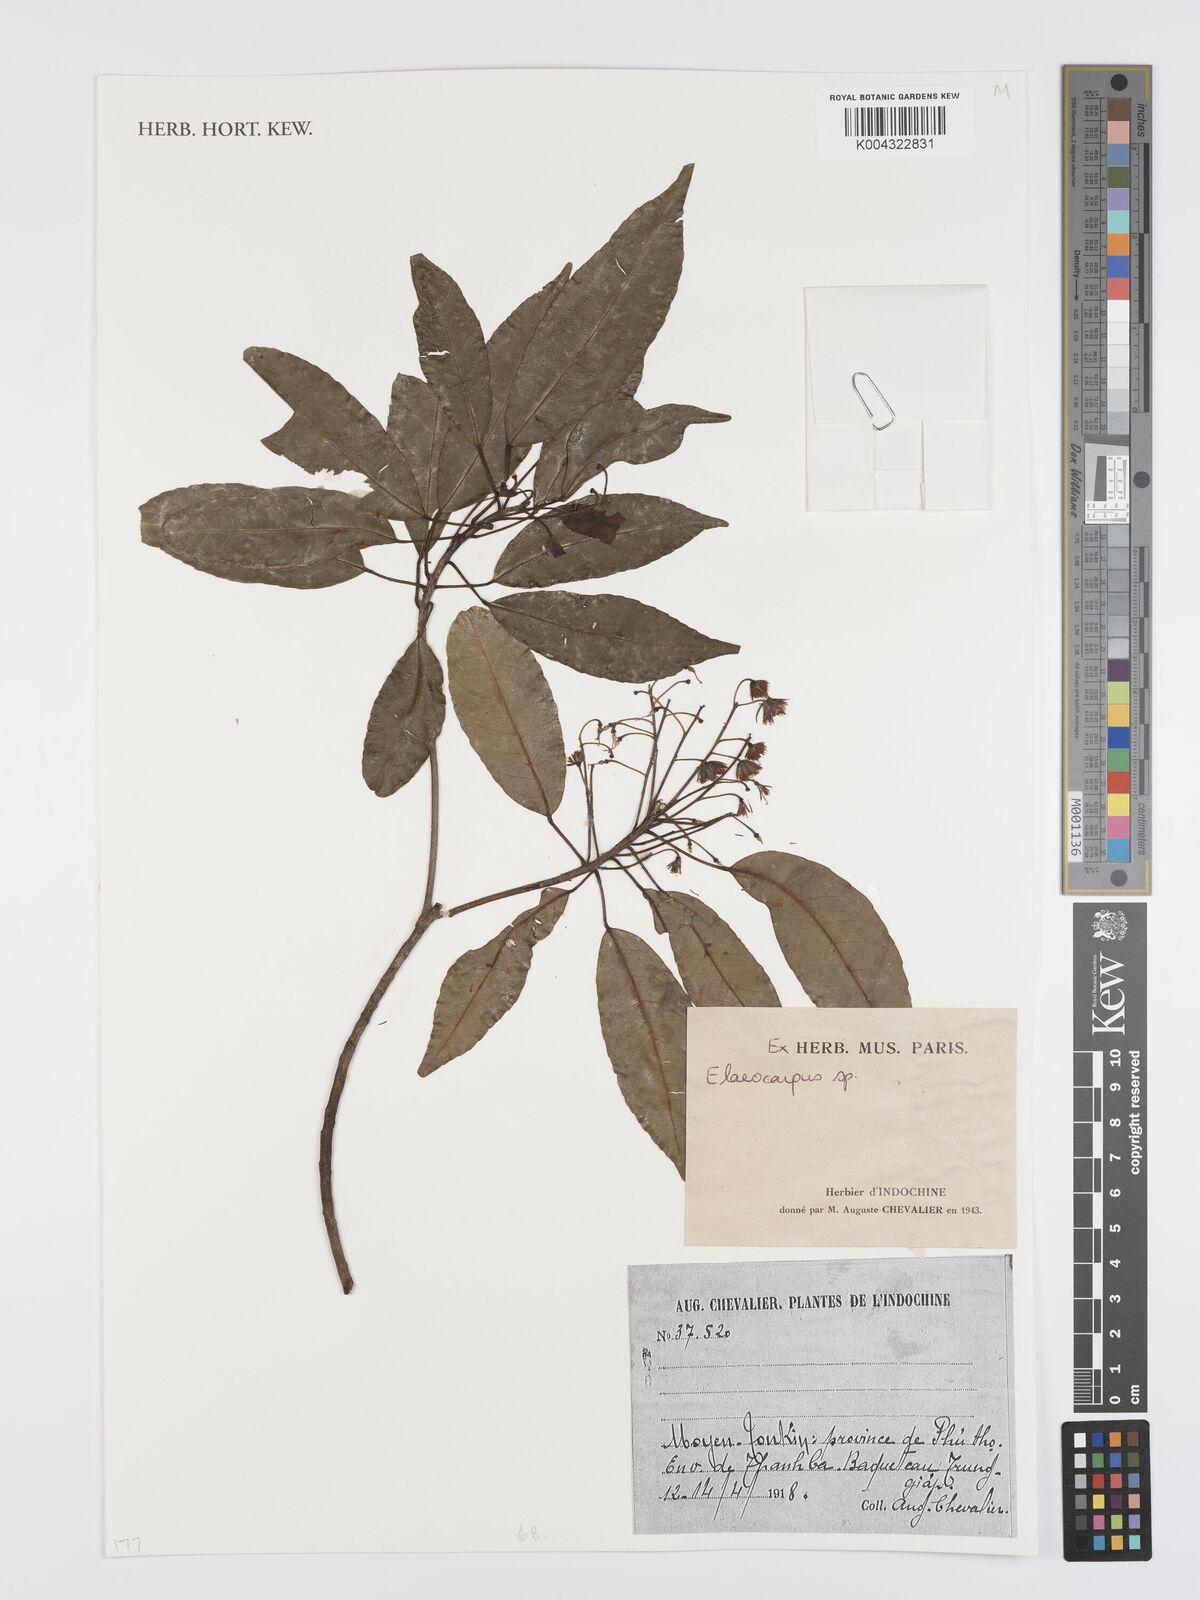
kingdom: Plantae
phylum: Tracheophyta
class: Magnoliopsida
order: Oxalidales
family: Elaeocarpaceae
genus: Elaeocarpus
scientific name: Elaeocarpus
